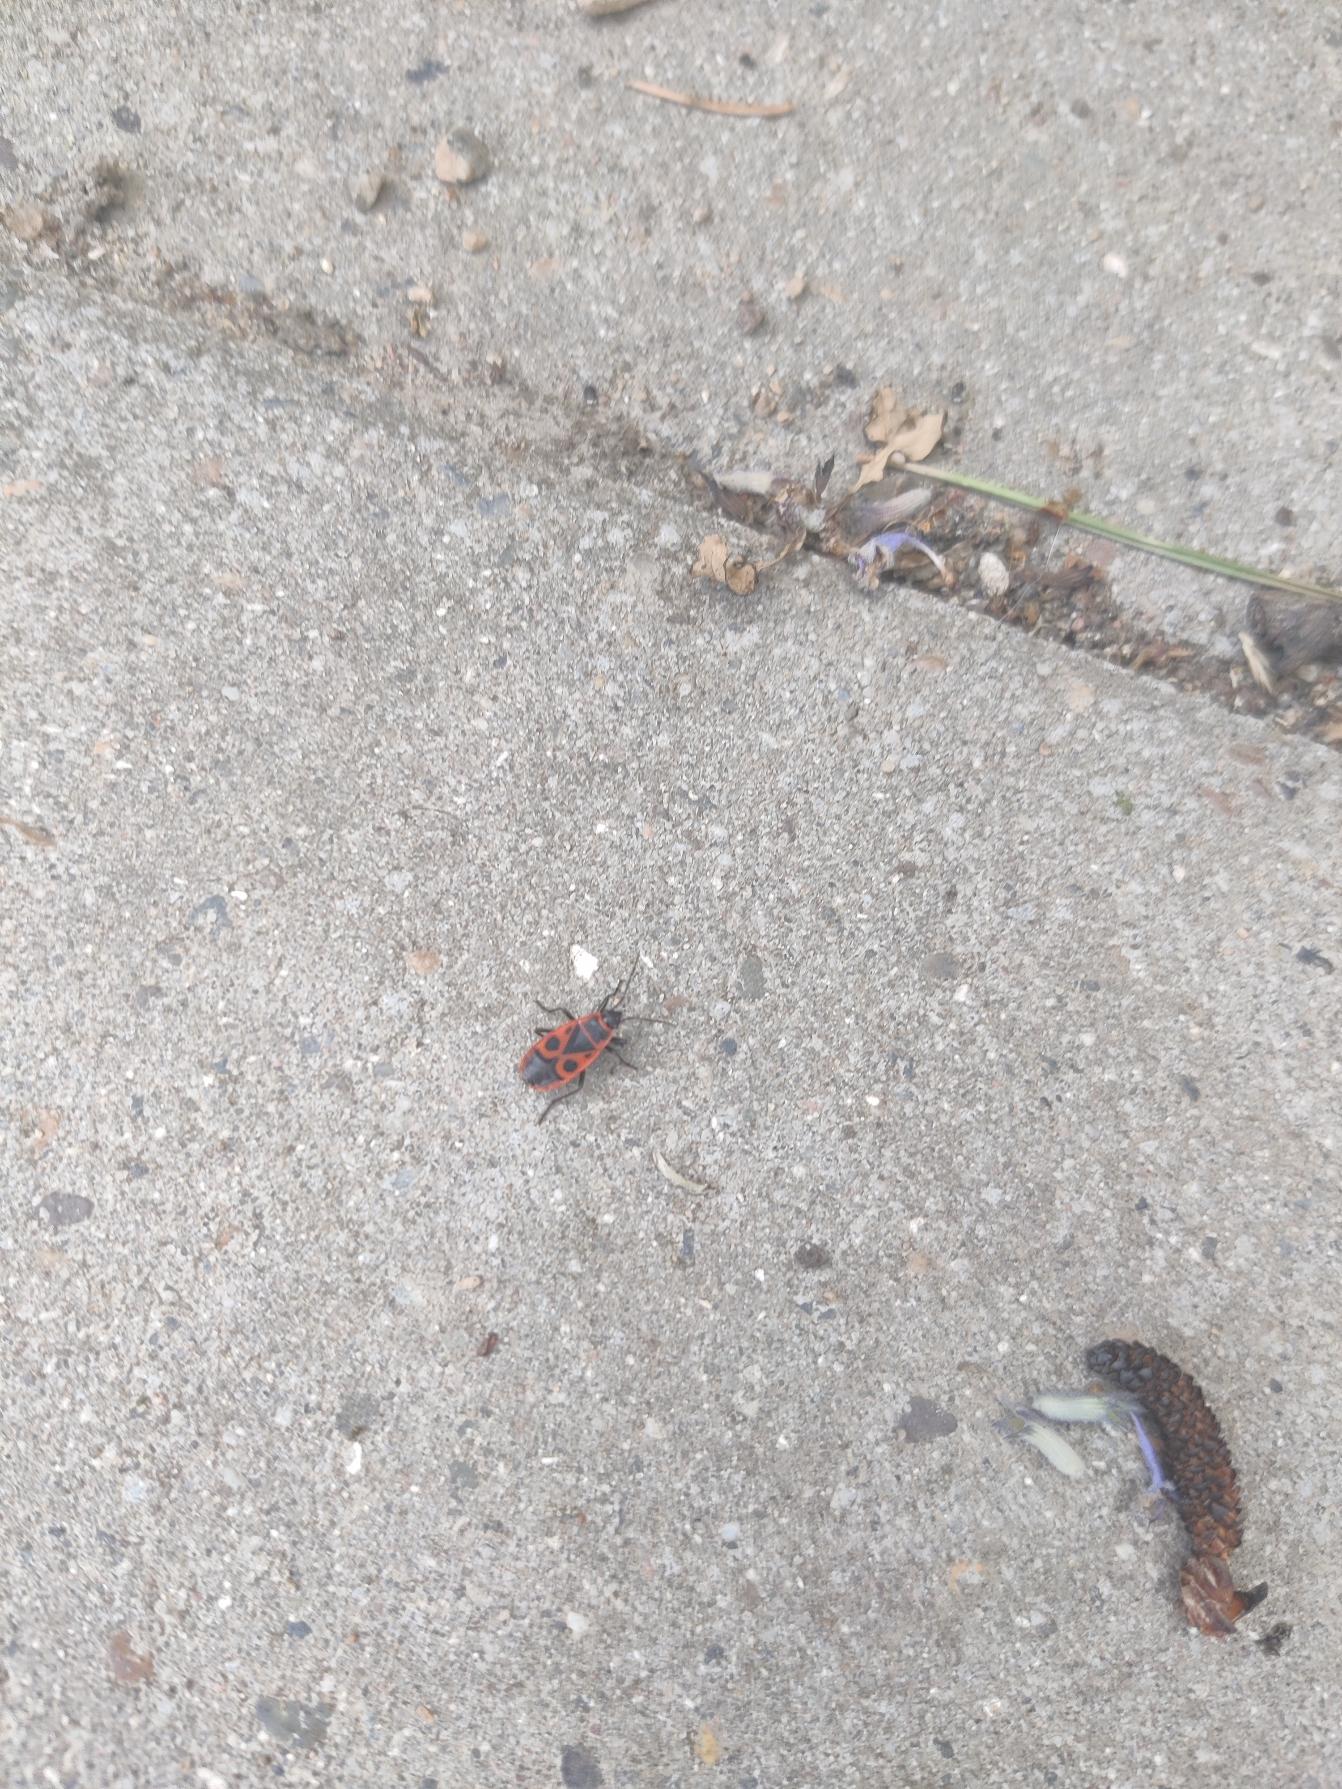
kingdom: Animalia
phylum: Arthropoda
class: Insecta
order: Hemiptera
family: Pyrrhocoridae
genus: Pyrrhocoris
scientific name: Pyrrhocoris apterus
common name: Ildtæge
